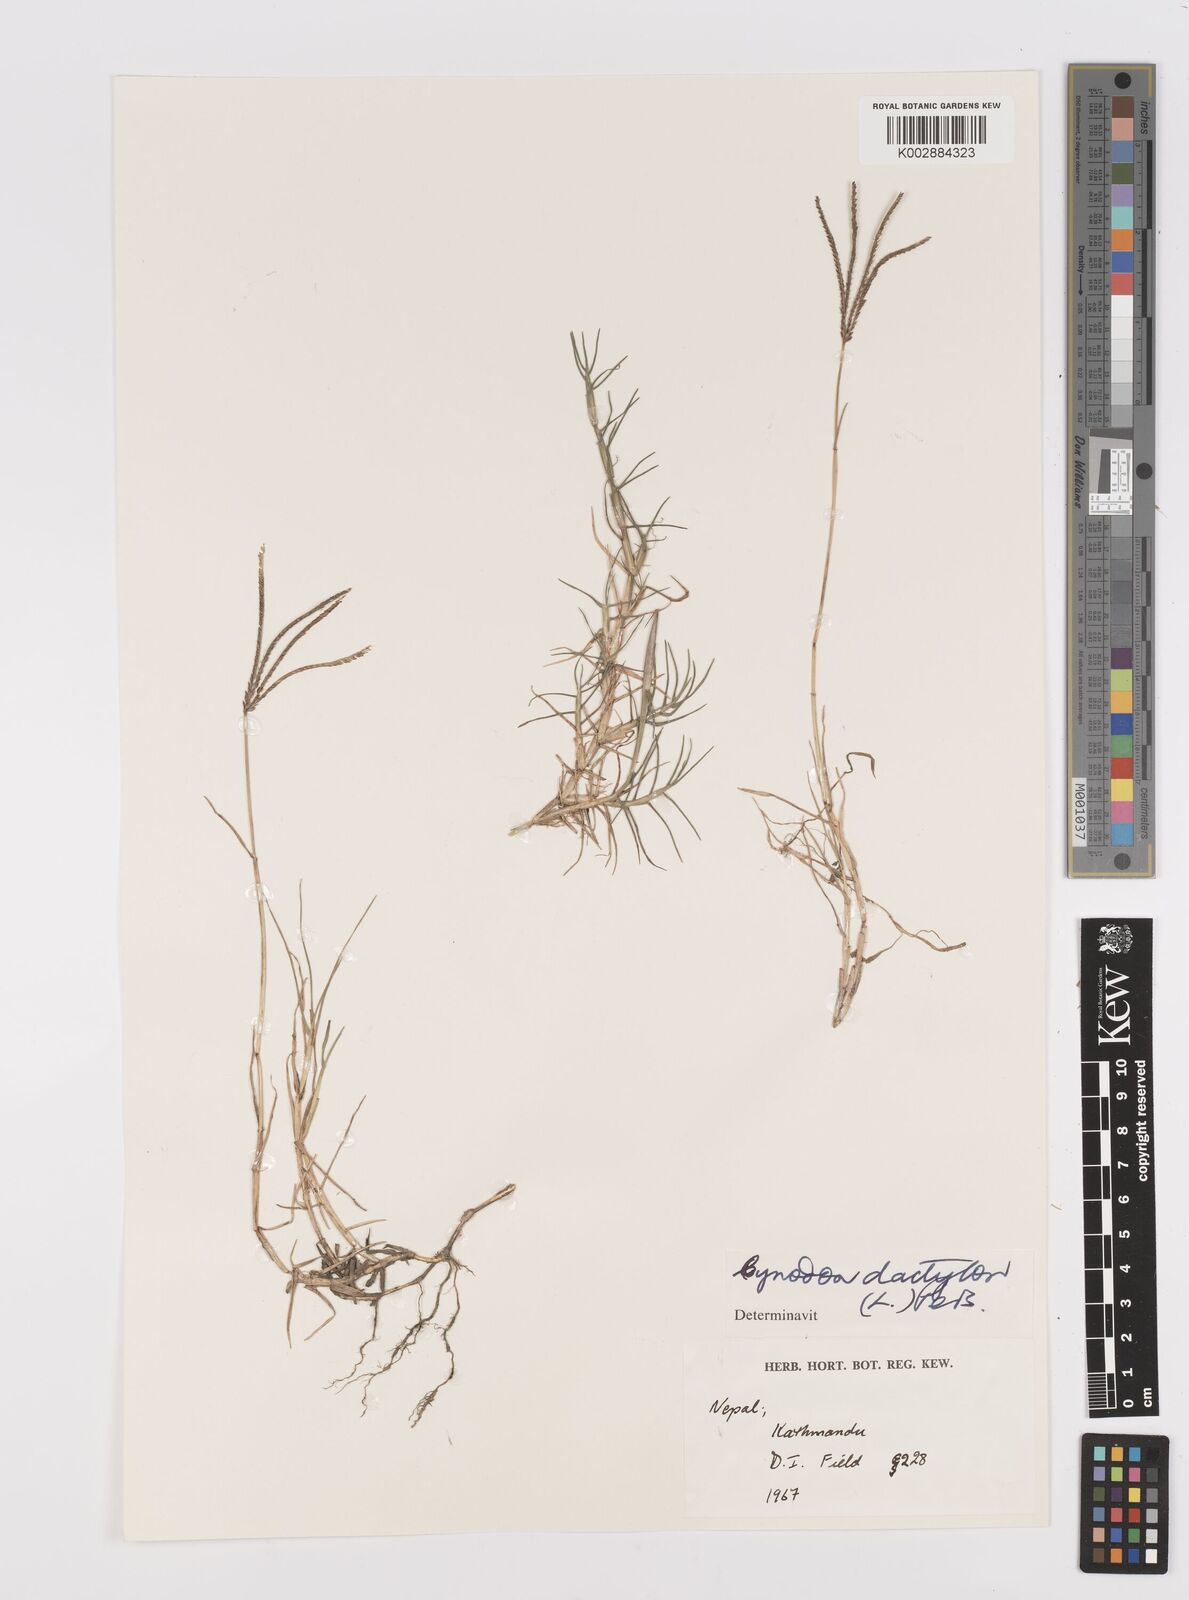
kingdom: Plantae
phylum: Tracheophyta
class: Liliopsida
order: Poales
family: Poaceae
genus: Cynodon
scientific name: Cynodon dactylon
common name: Bermuda grass
